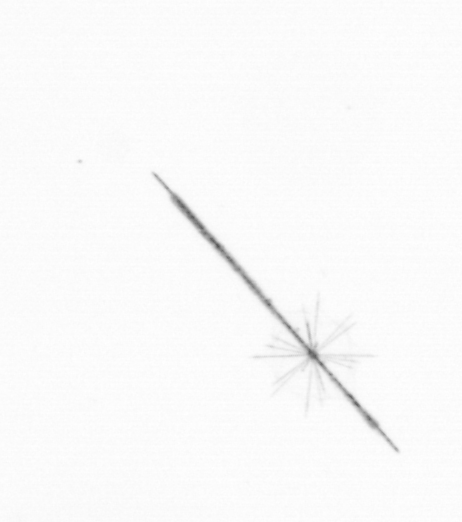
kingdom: Chromista
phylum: Ochrophyta
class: Bacillariophyceae
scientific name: Bacillariophyceae
